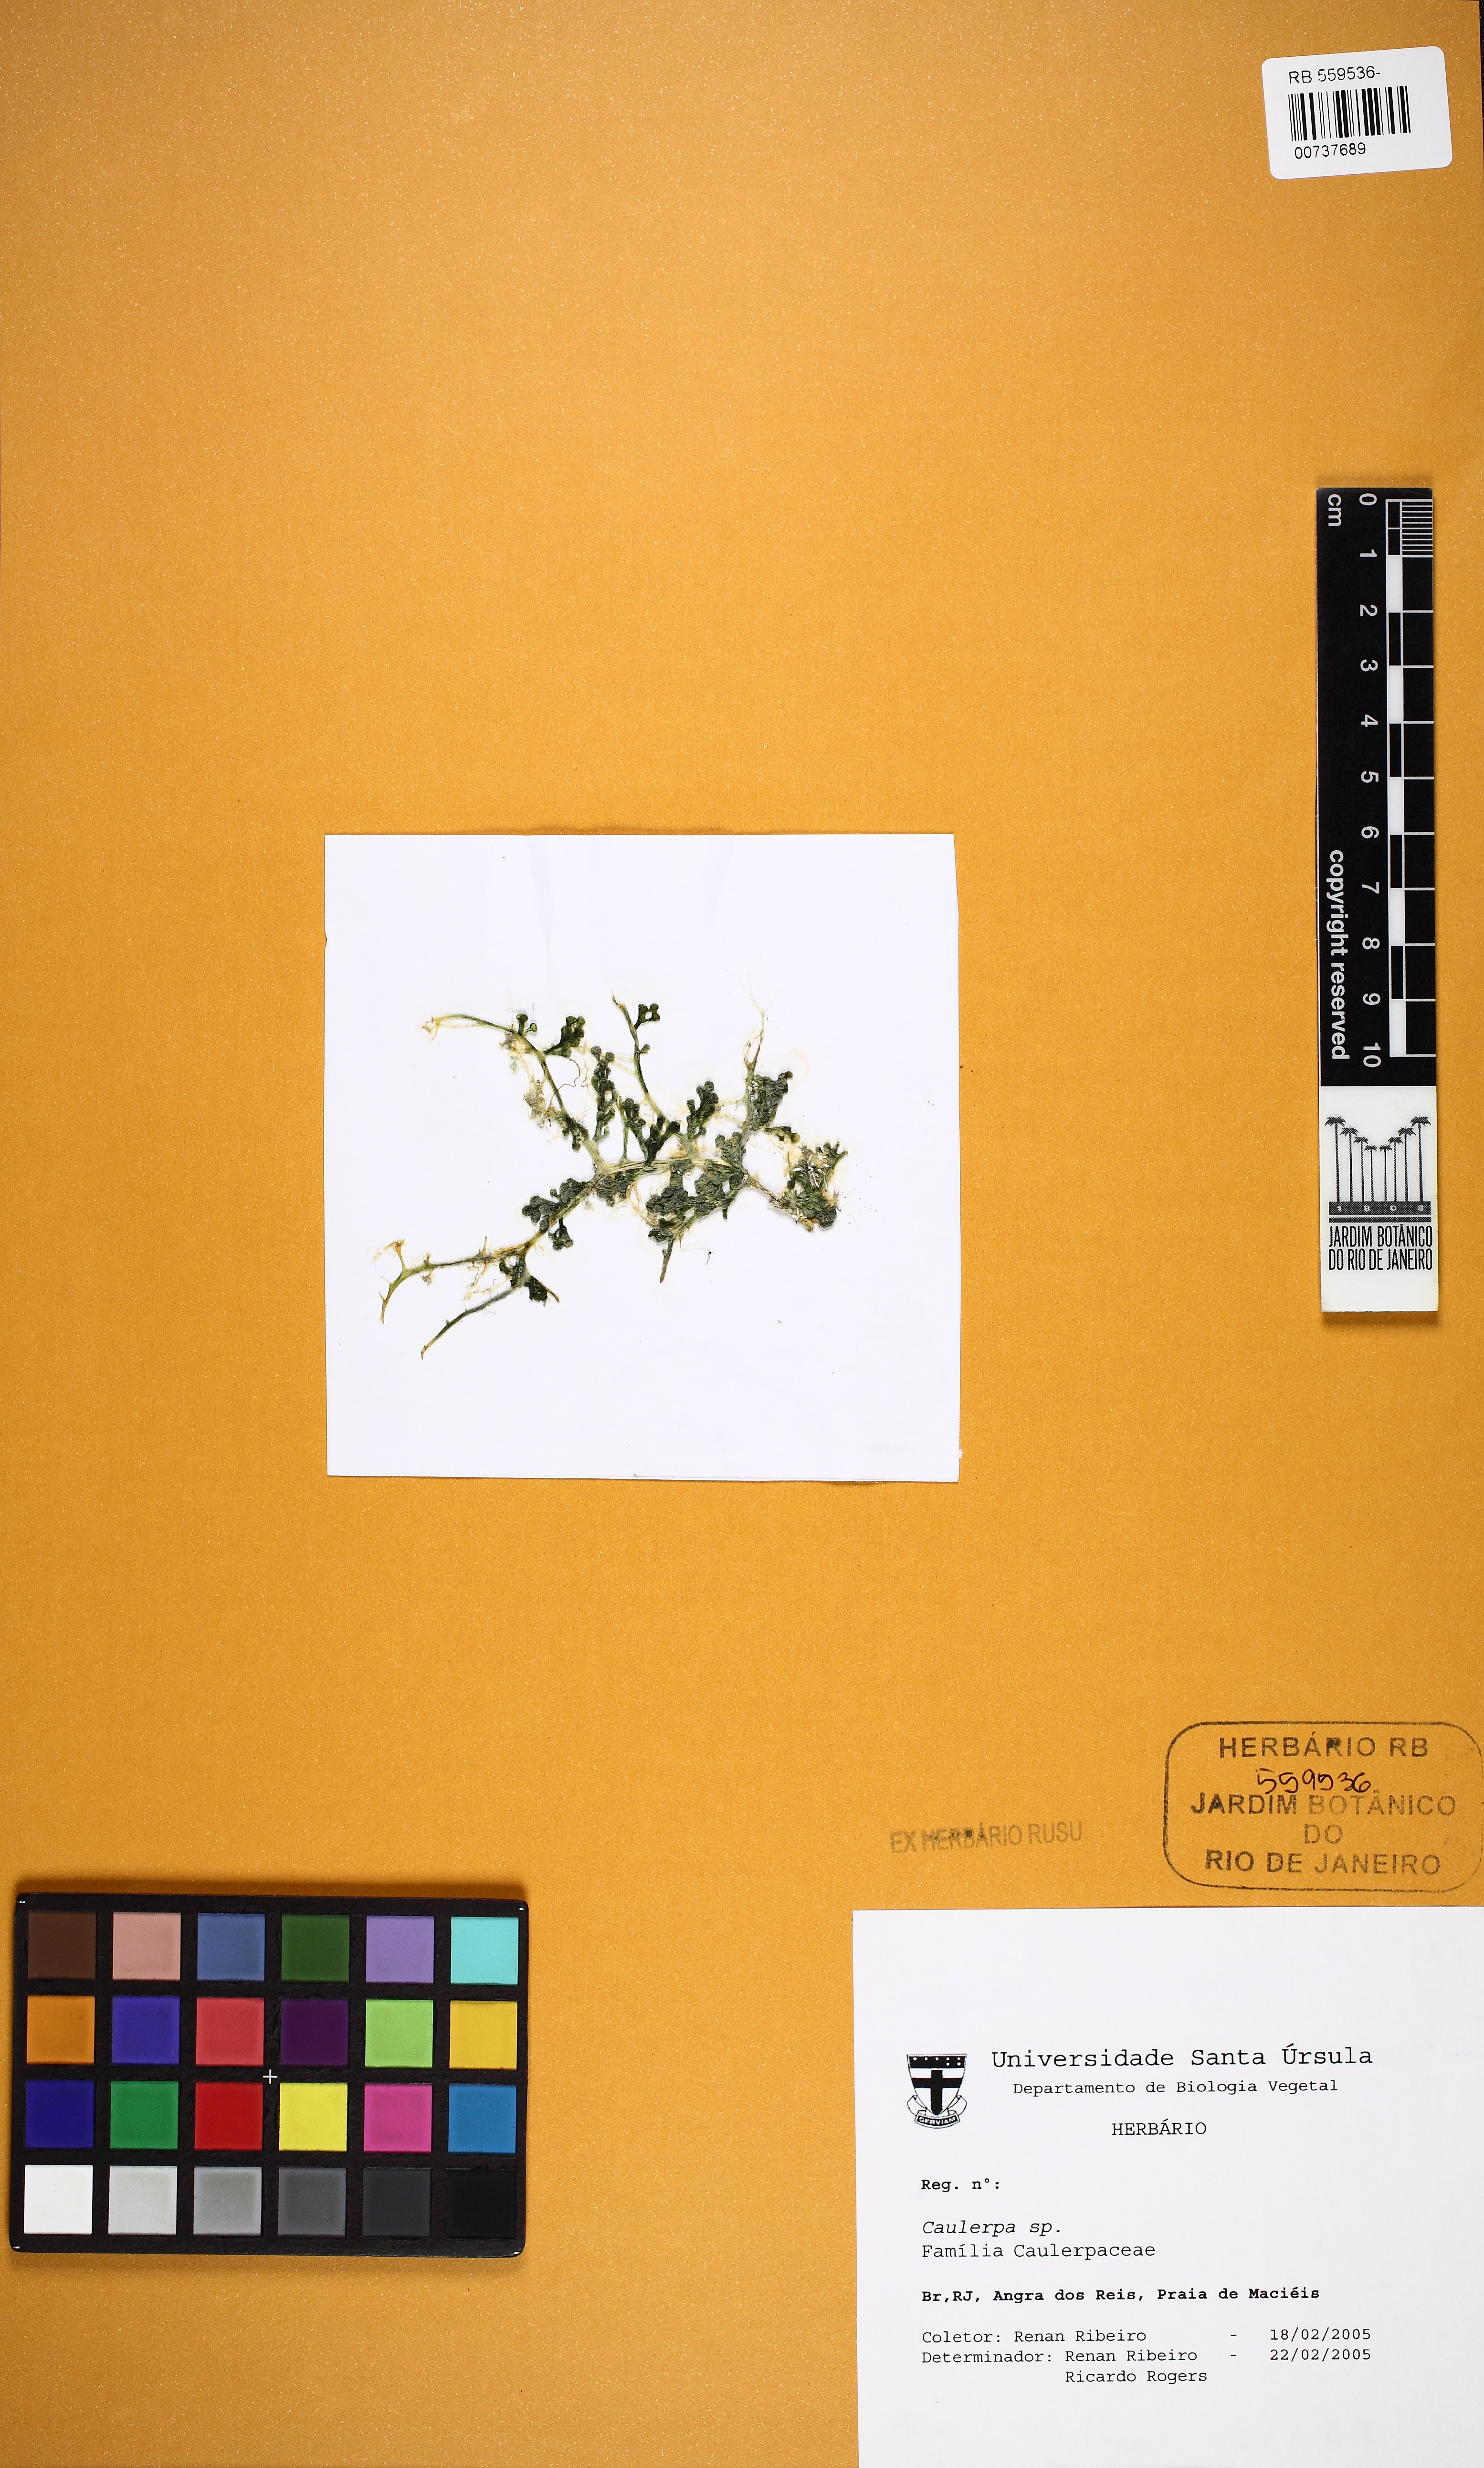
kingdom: Plantae
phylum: Chlorophyta
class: Ulvophyceae
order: Bryopsidales
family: Caulerpaceae
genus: Caulerpa
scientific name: Caulerpa
